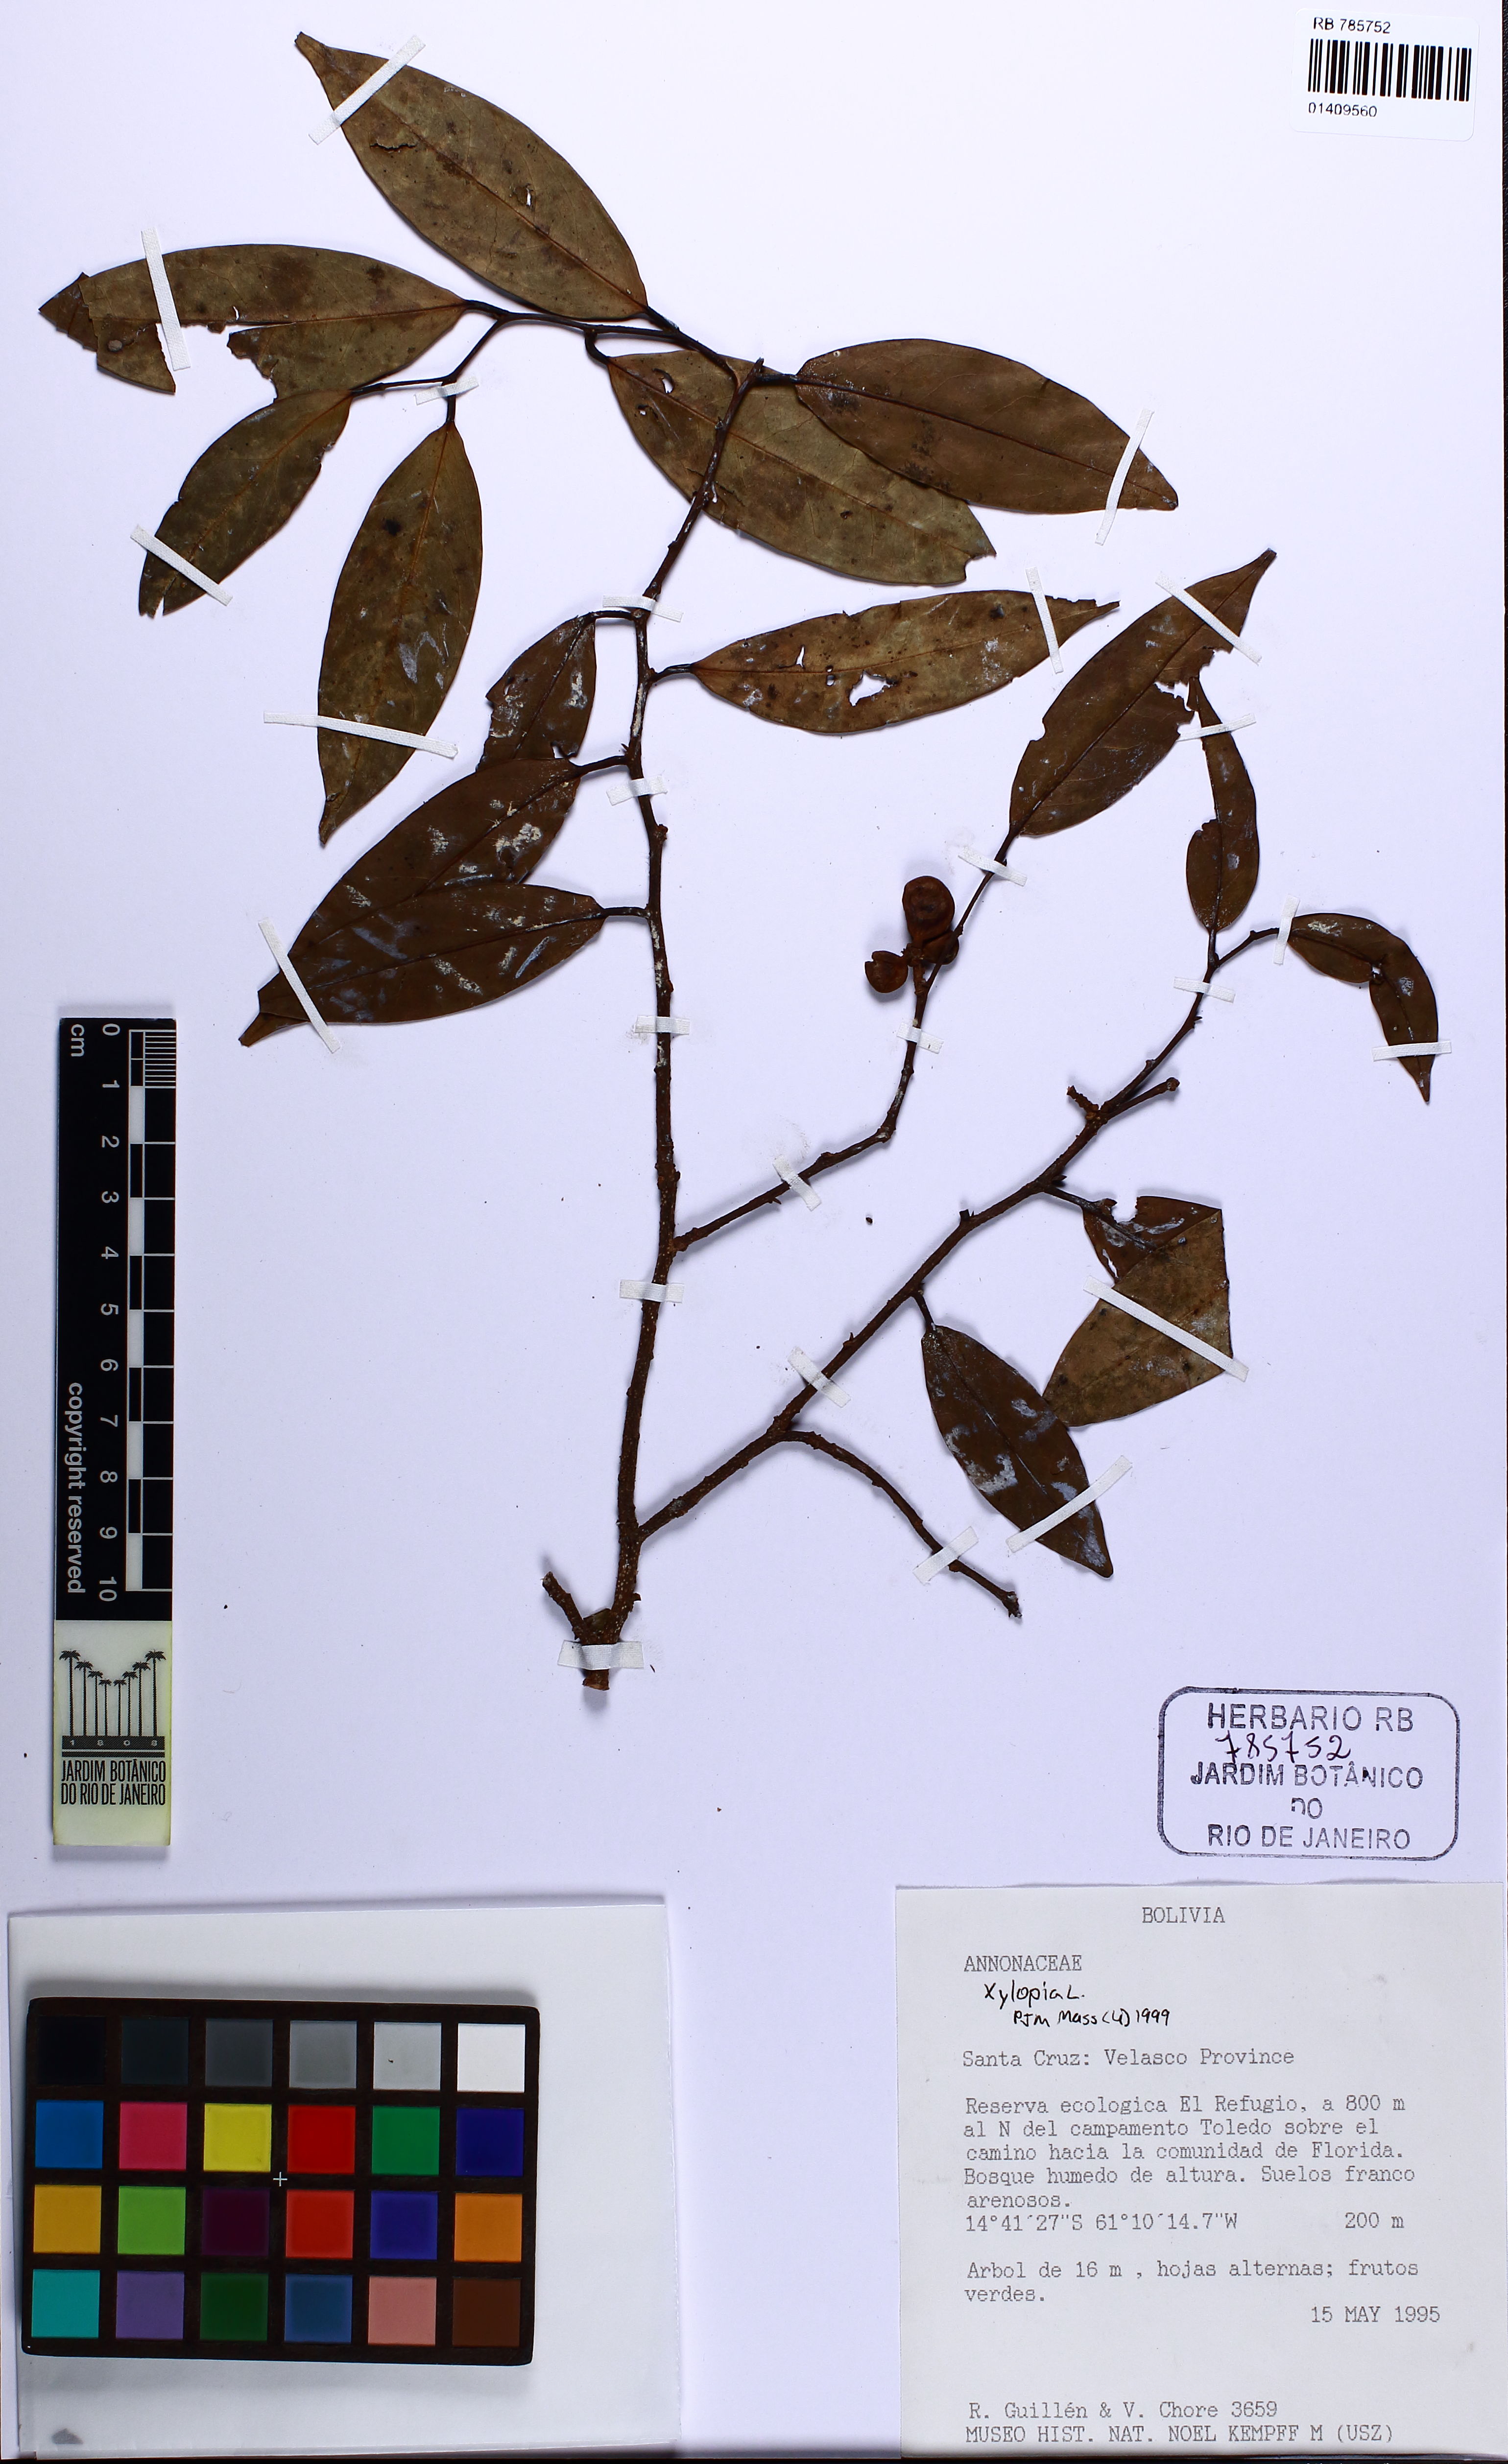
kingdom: Plantae
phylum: Tracheophyta
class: Magnoliopsida
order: Magnoliales
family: Annonaceae
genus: Xylopia
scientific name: Xylopia
